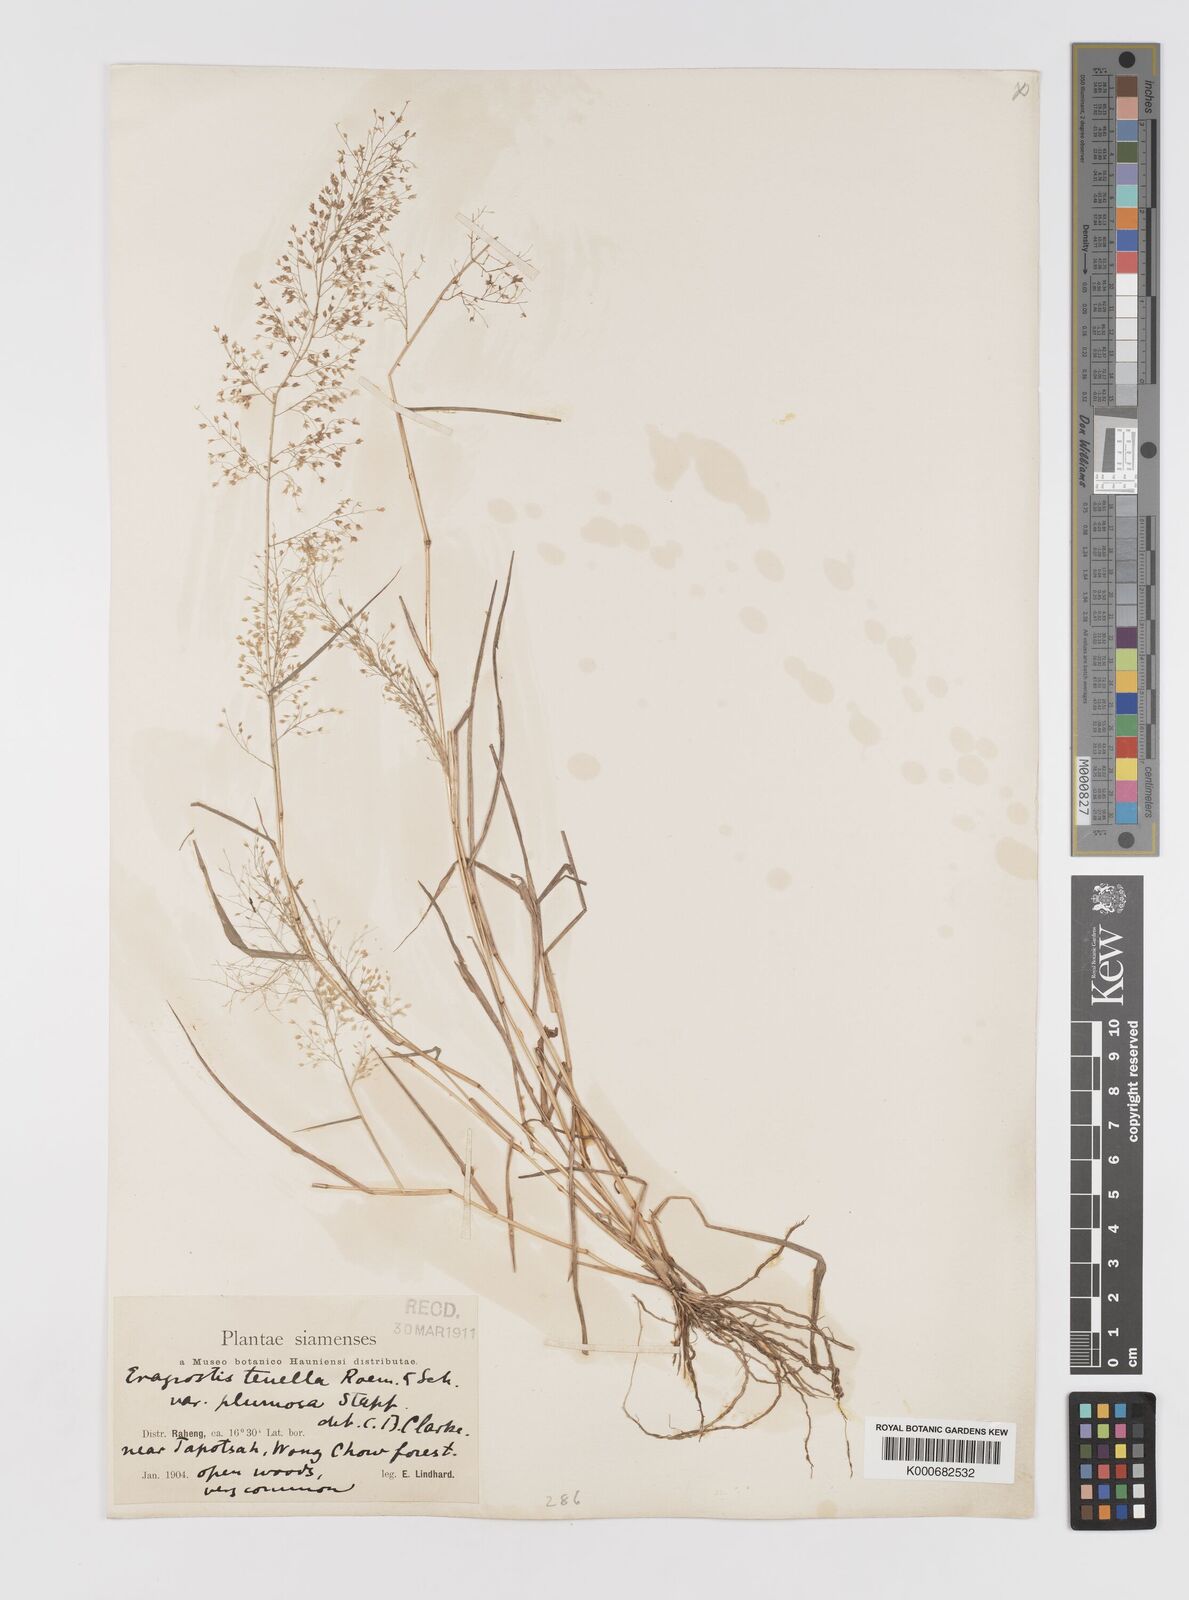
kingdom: Plantae
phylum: Tracheophyta
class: Liliopsida
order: Poales
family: Poaceae
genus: Eragrostis
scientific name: Eragrostis tenella
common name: Japanese lovegrass
